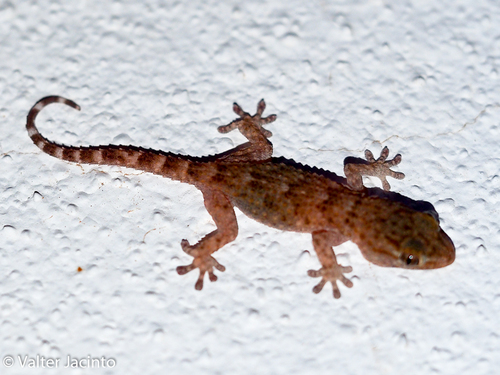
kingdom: Animalia
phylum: Chordata
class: Squamata
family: Phyllodactylidae
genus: Tarentola
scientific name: Tarentola mauritanica
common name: Moorish gecko
